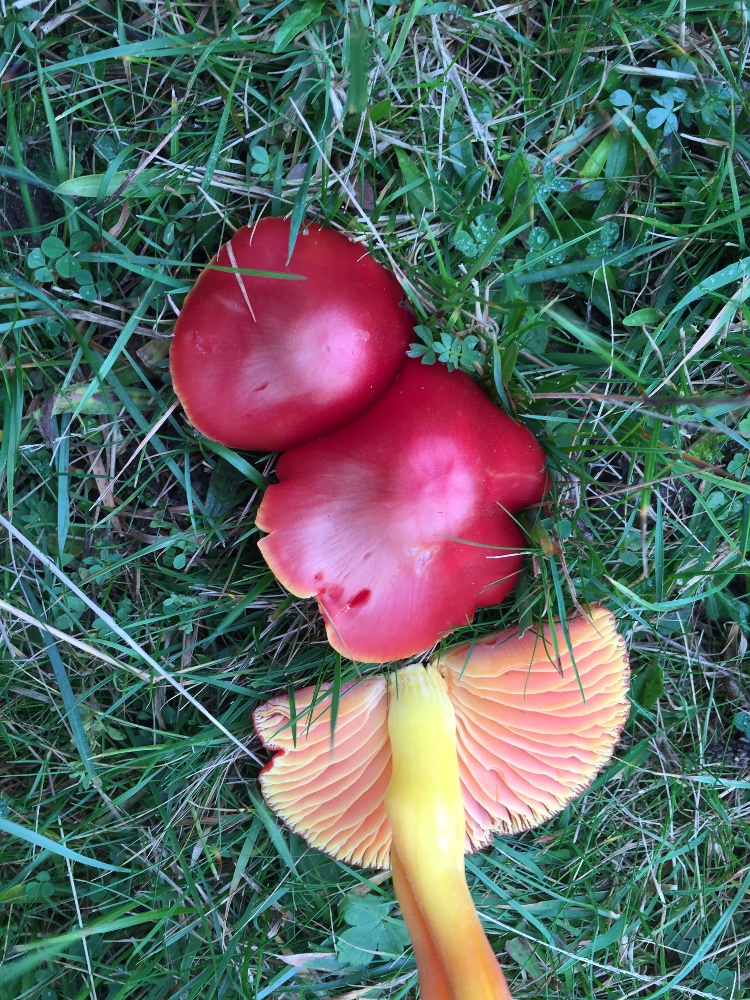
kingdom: Fungi
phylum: Basidiomycota
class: Agaricomycetes
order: Agaricales
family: Hygrophoraceae
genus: Hygrocybe
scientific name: Hygrocybe splendidissima
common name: knaldrød vokshat
